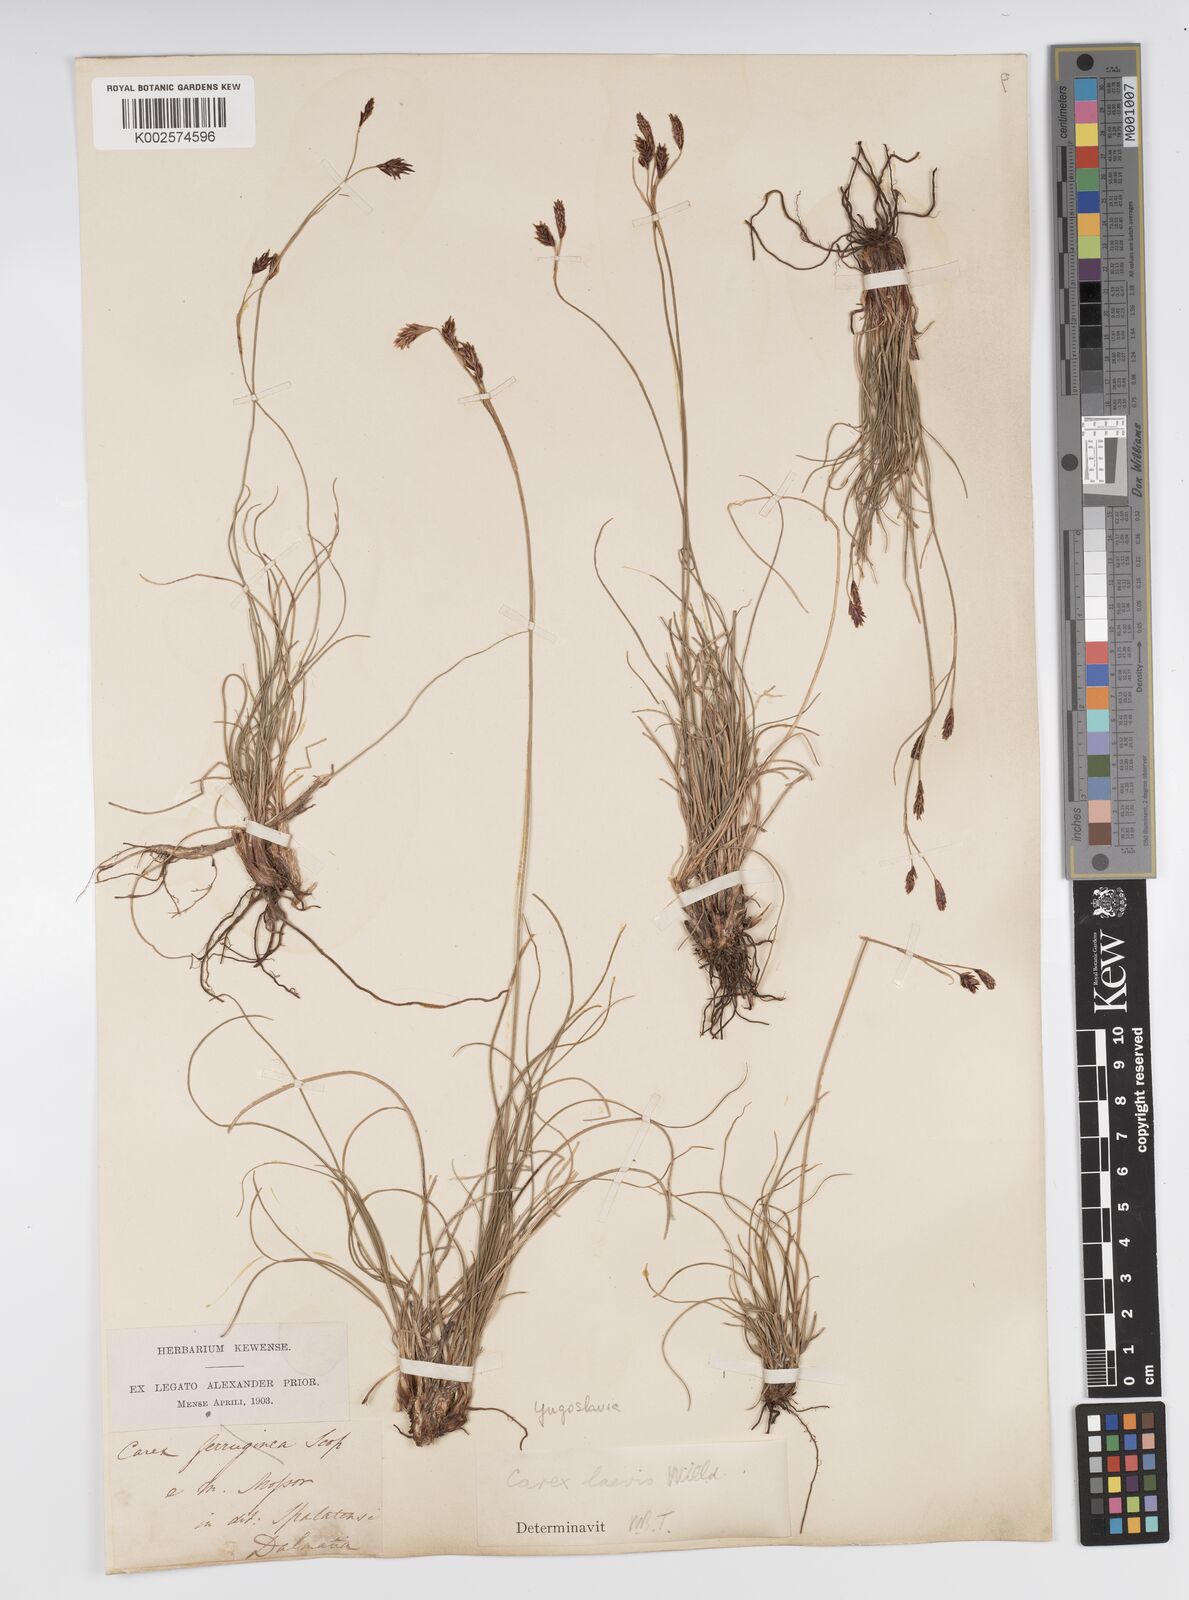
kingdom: Plantae
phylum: Tracheophyta
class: Liliopsida
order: Poales
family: Cyperaceae
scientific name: Cyperaceae
